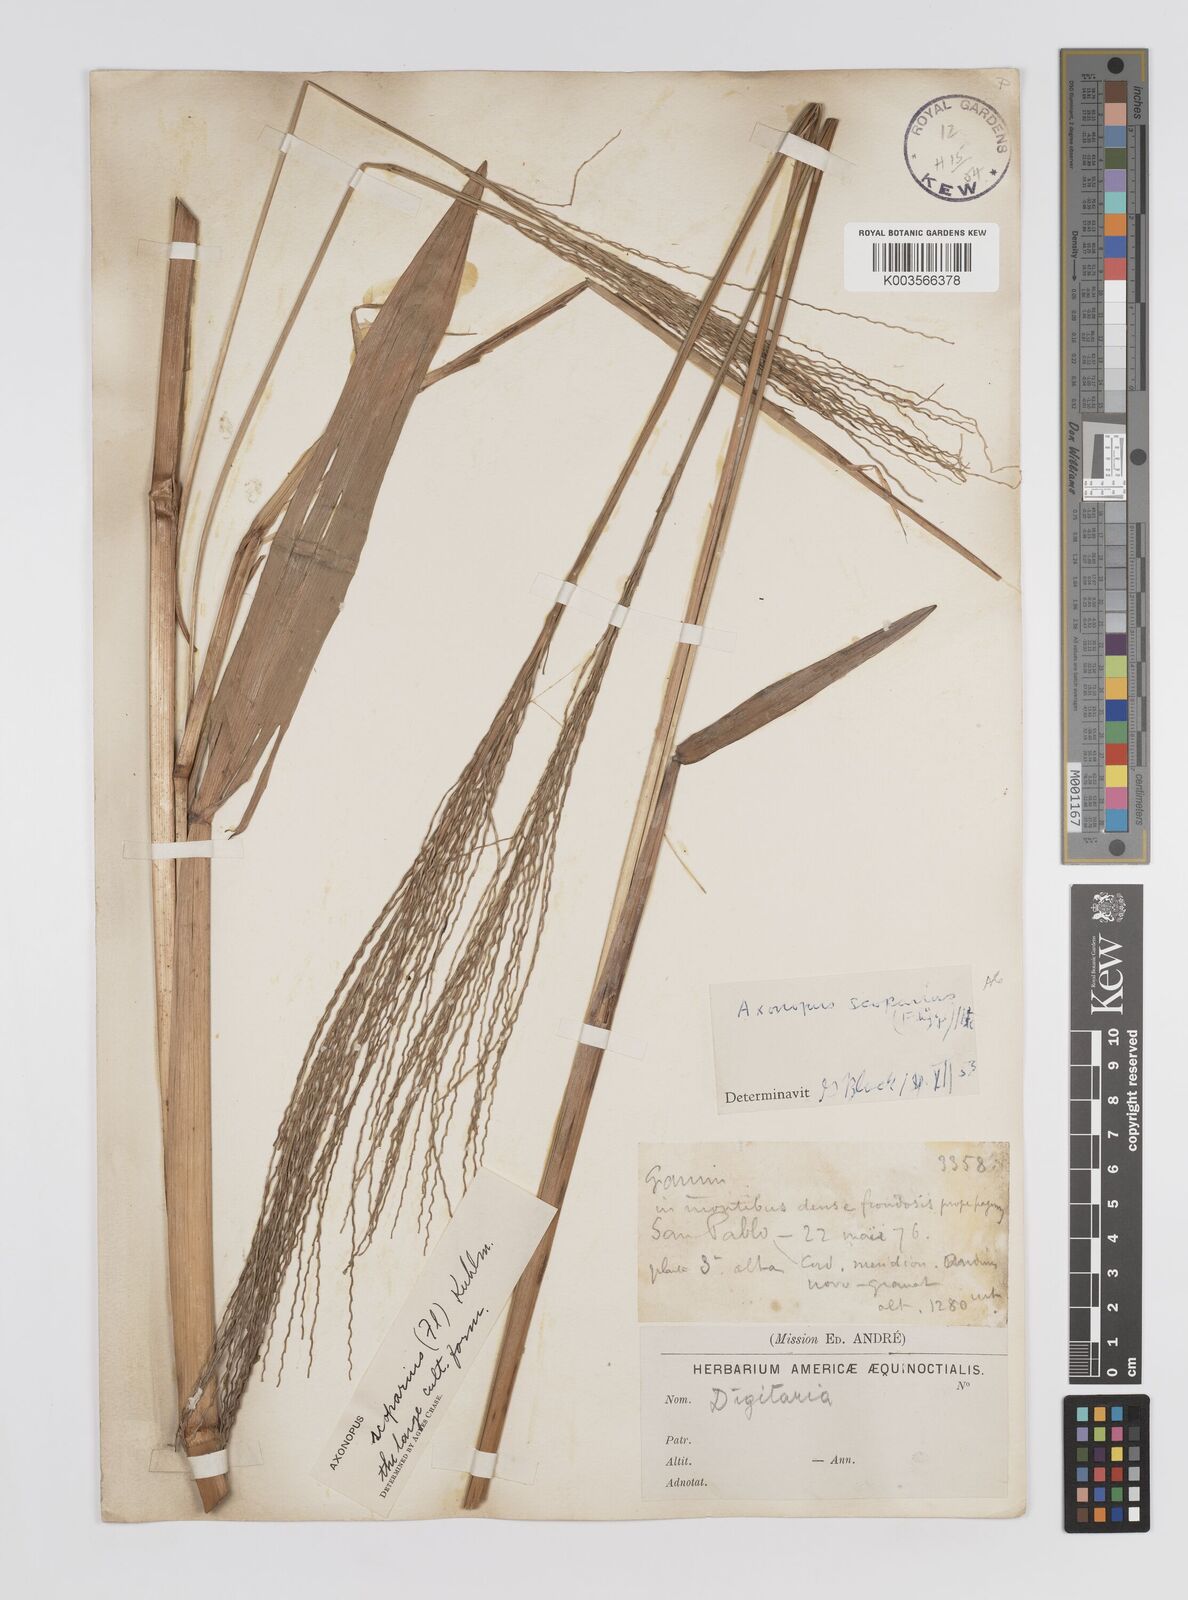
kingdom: Plantae
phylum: Tracheophyta
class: Liliopsida
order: Poales
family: Poaceae
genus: Axonopus
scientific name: Axonopus scoparius
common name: Imperial grass
